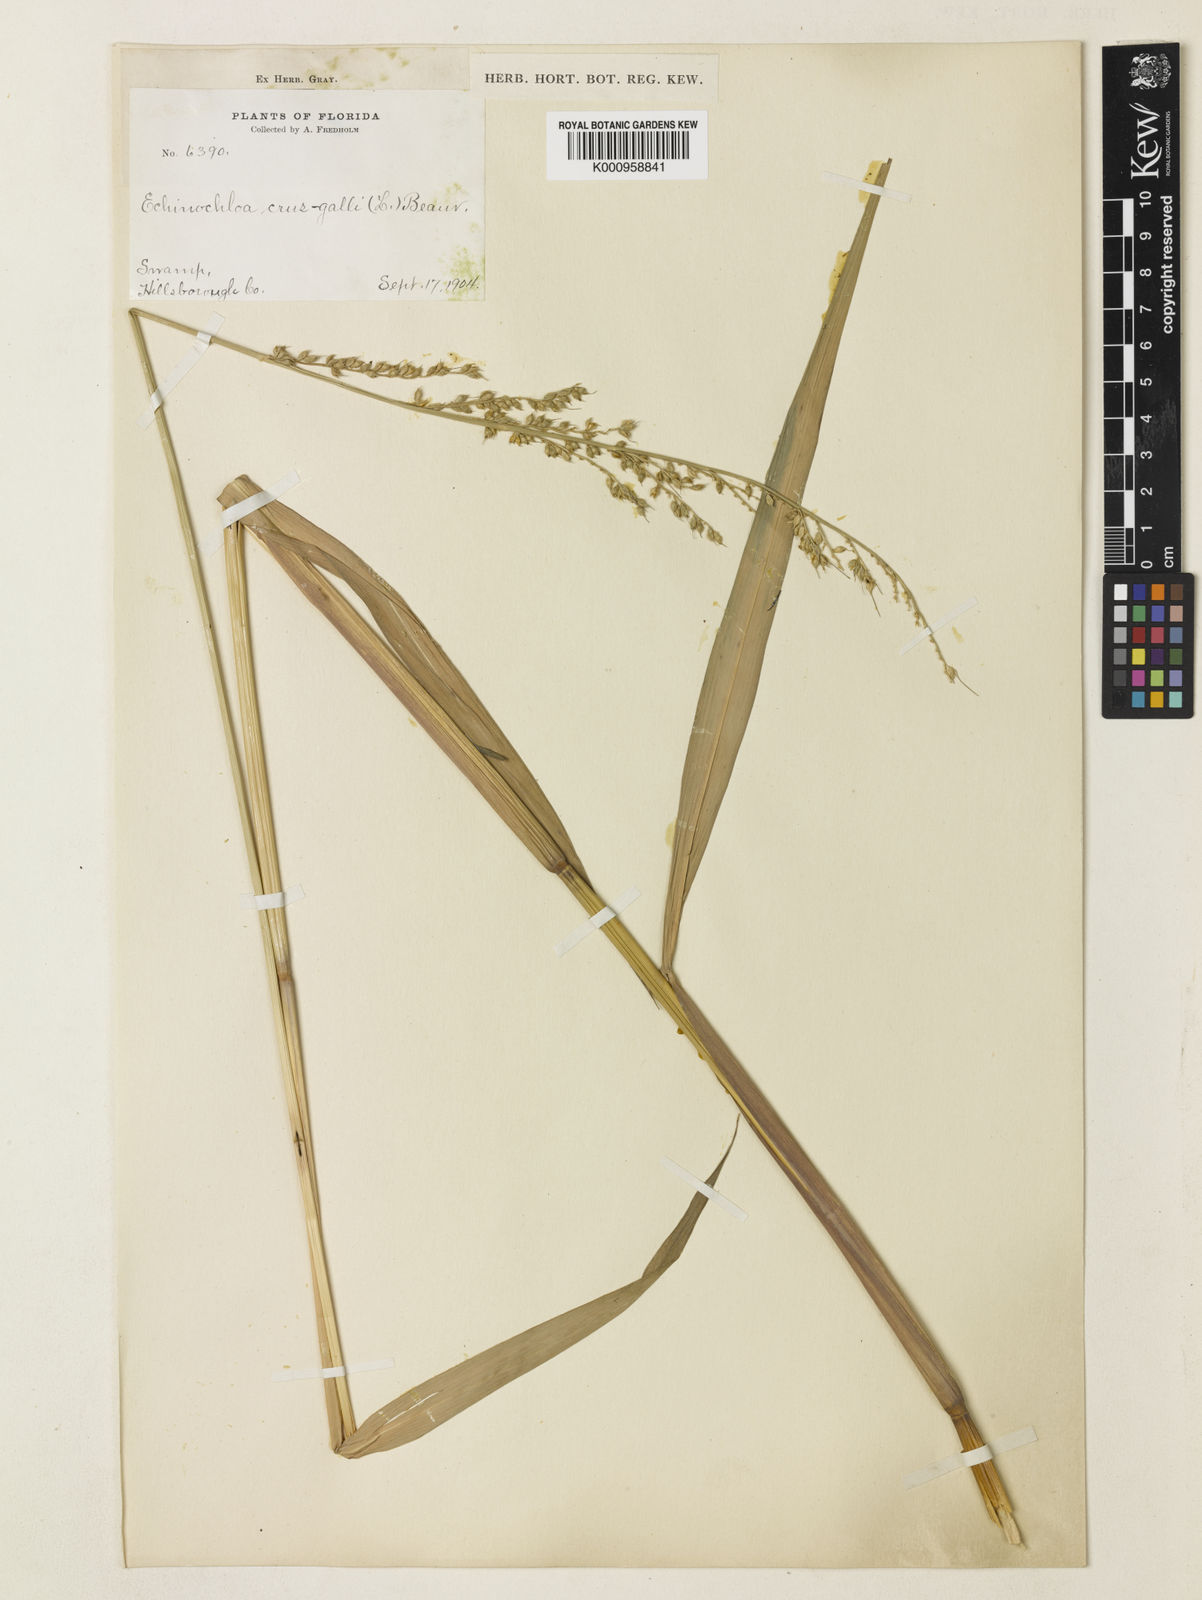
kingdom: Plantae
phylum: Tracheophyta
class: Liliopsida
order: Poales
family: Poaceae
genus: Echinochloa
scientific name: Echinochloa paludigena
